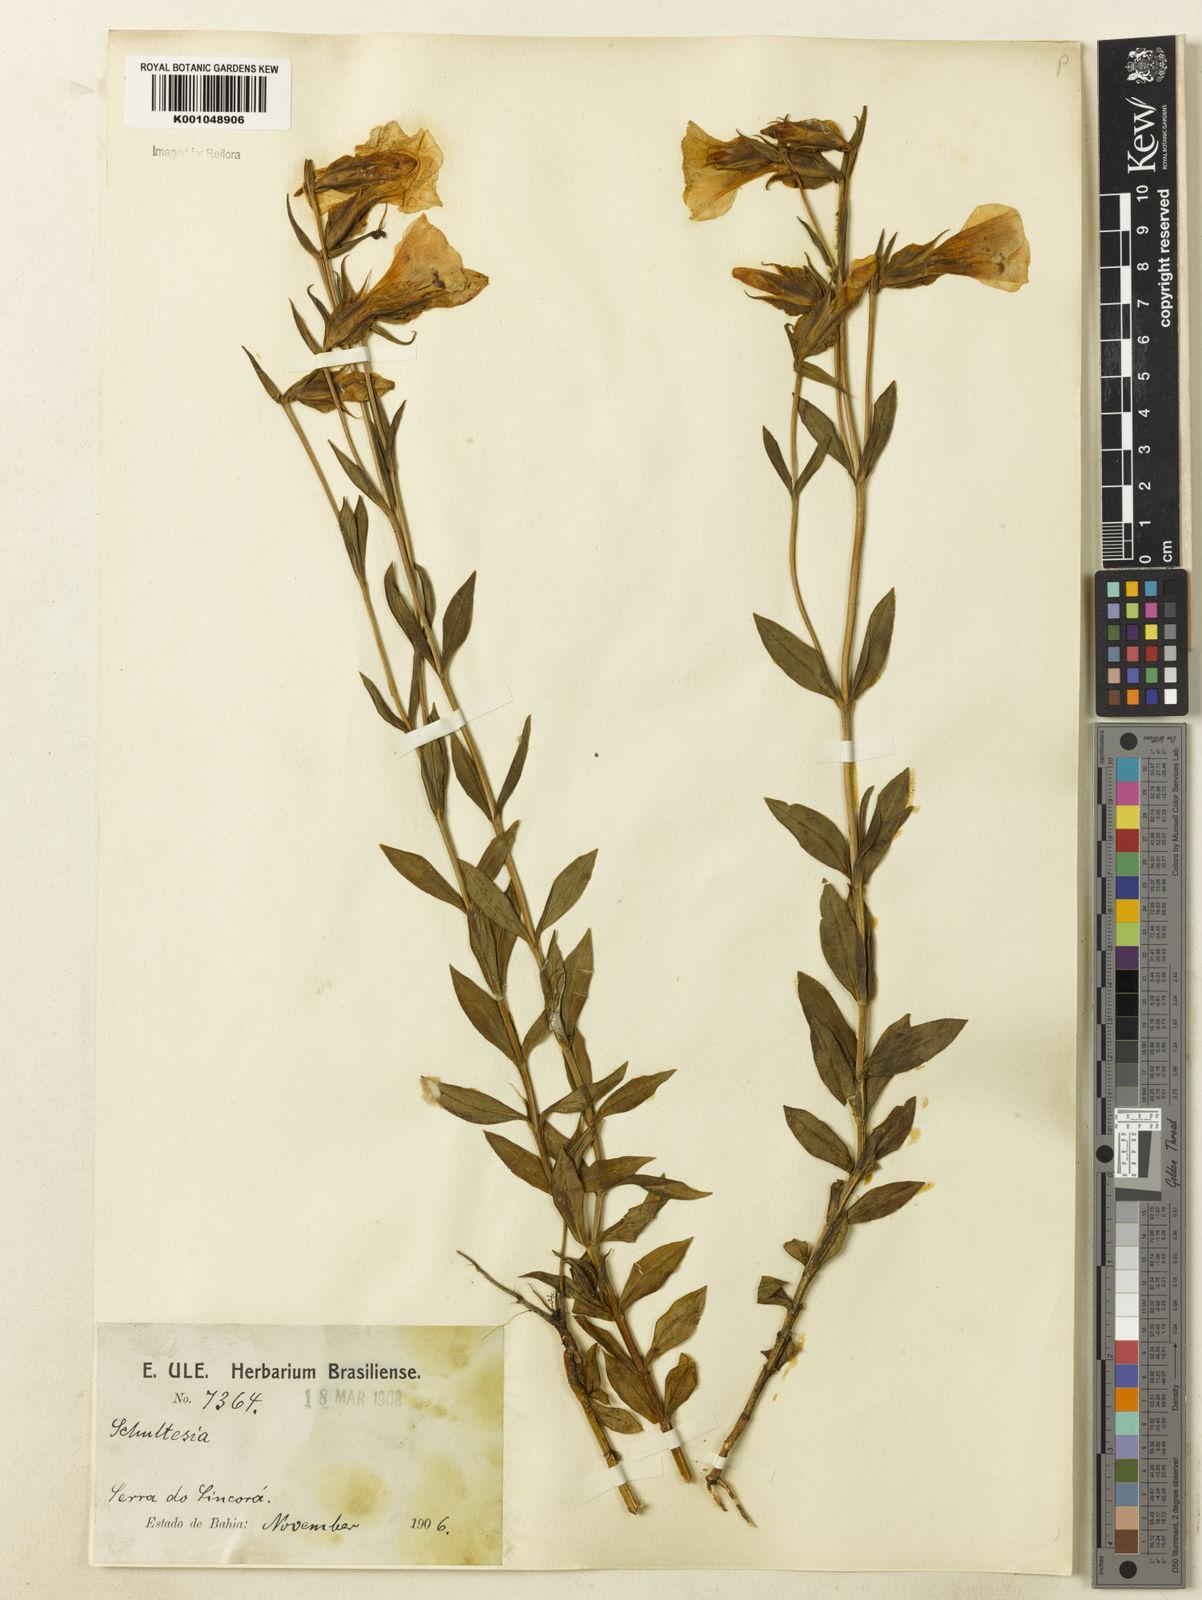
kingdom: Plantae
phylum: Tracheophyta
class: Magnoliopsida
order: Gentianales
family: Gentianaceae
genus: Schultesia
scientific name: Schultesia
